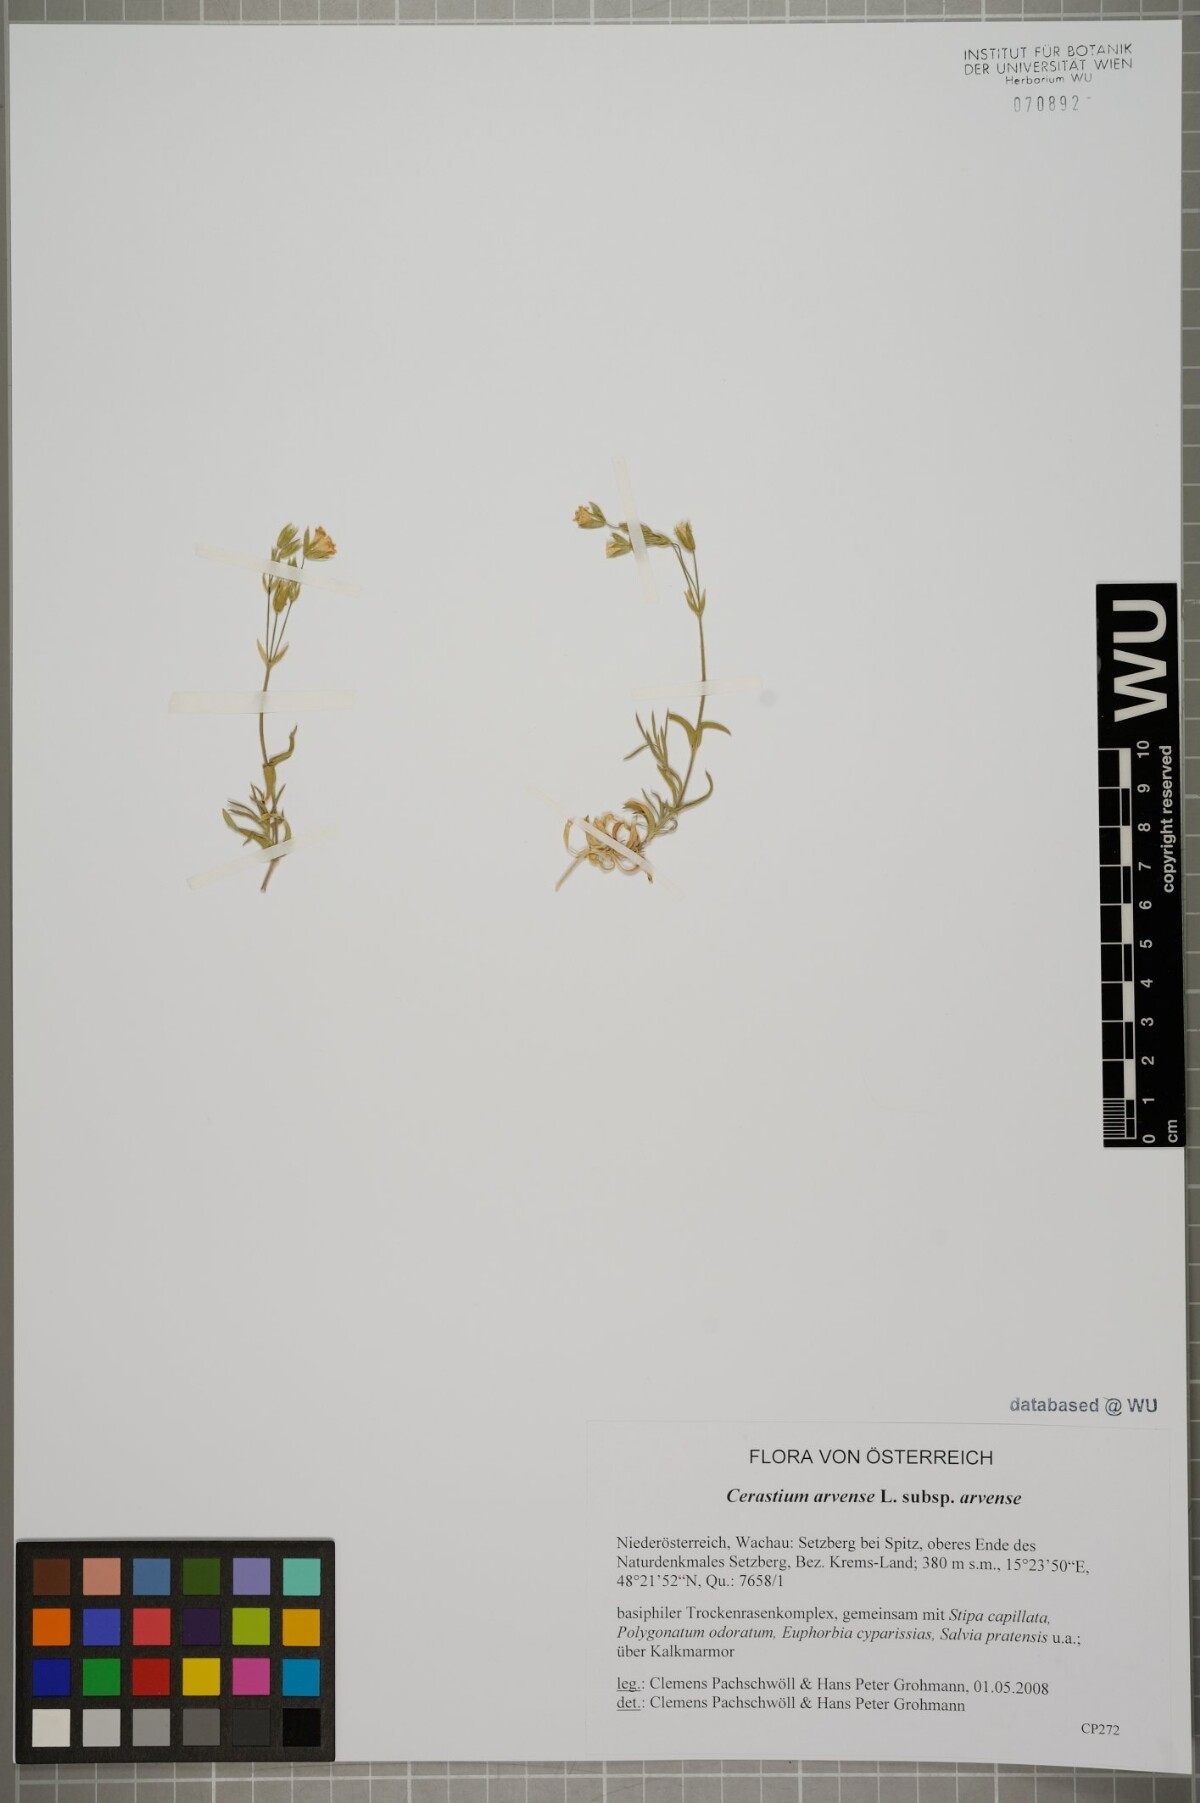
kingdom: Plantae
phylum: Tracheophyta
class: Magnoliopsida
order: Caryophyllales
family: Caryophyllaceae
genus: Cerastium
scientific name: Cerastium arvense
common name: Field mouse-ear
